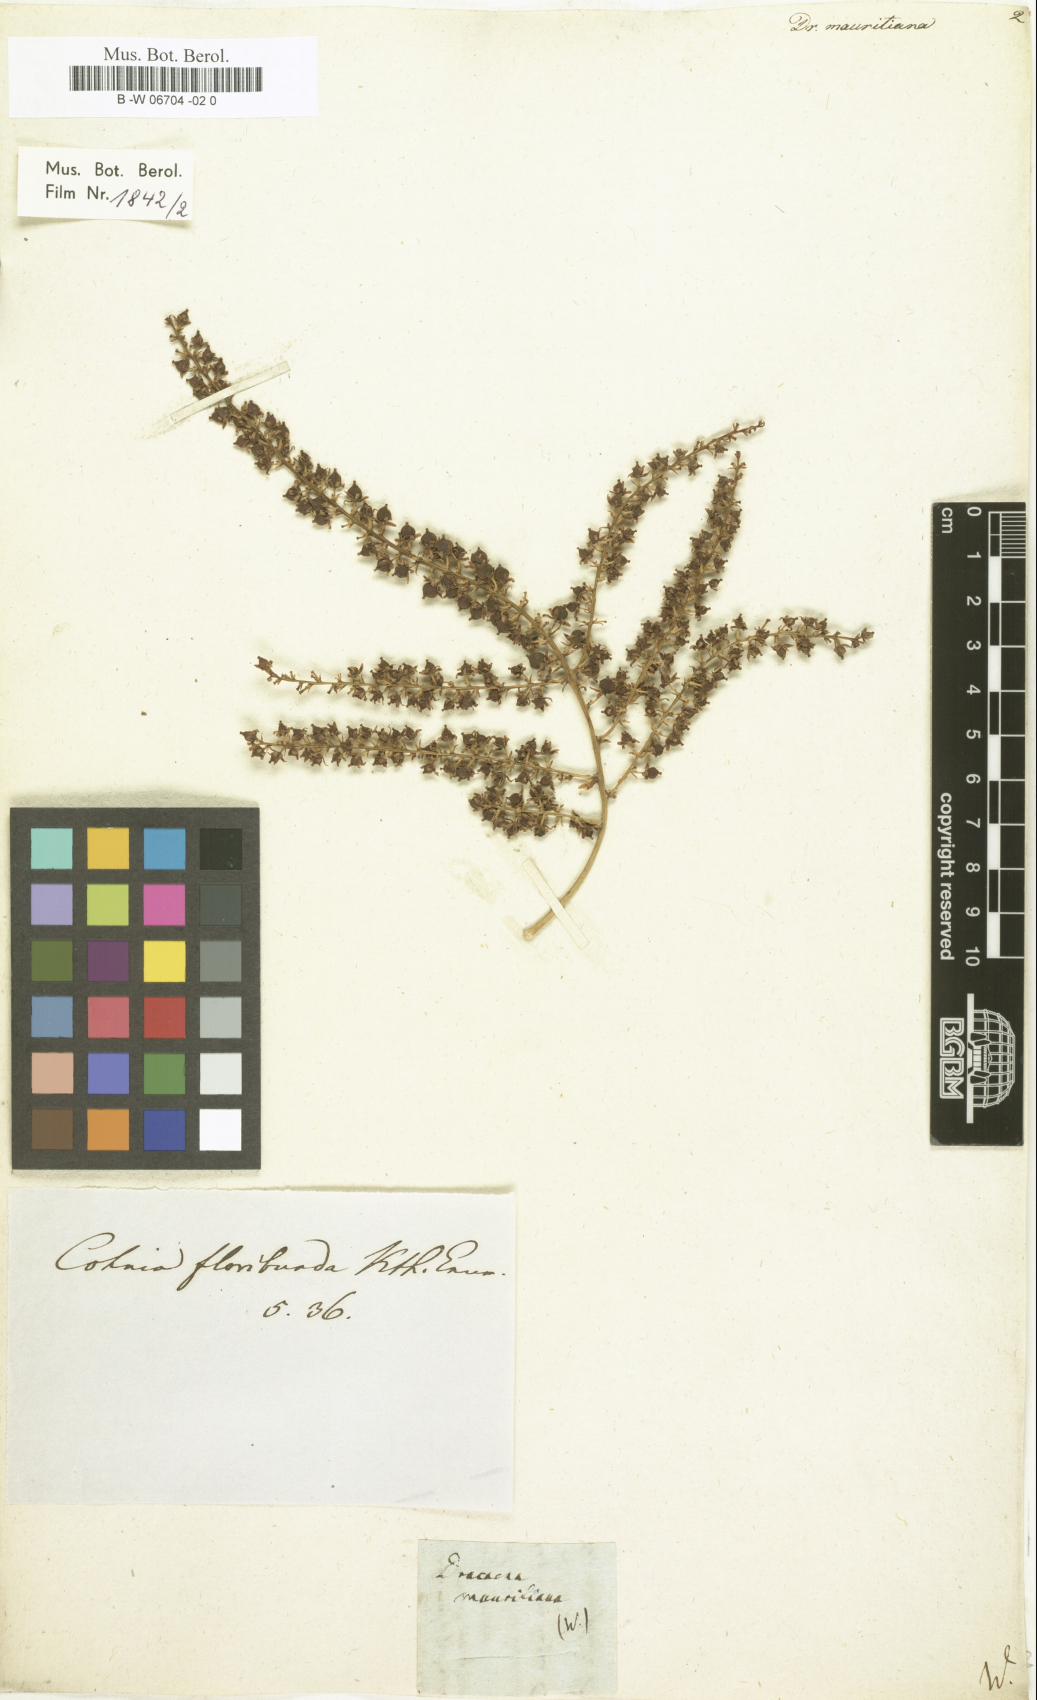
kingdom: Plantae
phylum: Tracheophyta
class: Liliopsida
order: Asparagales
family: Asparagaceae
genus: Dracaena
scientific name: Dracaena mauritiana
